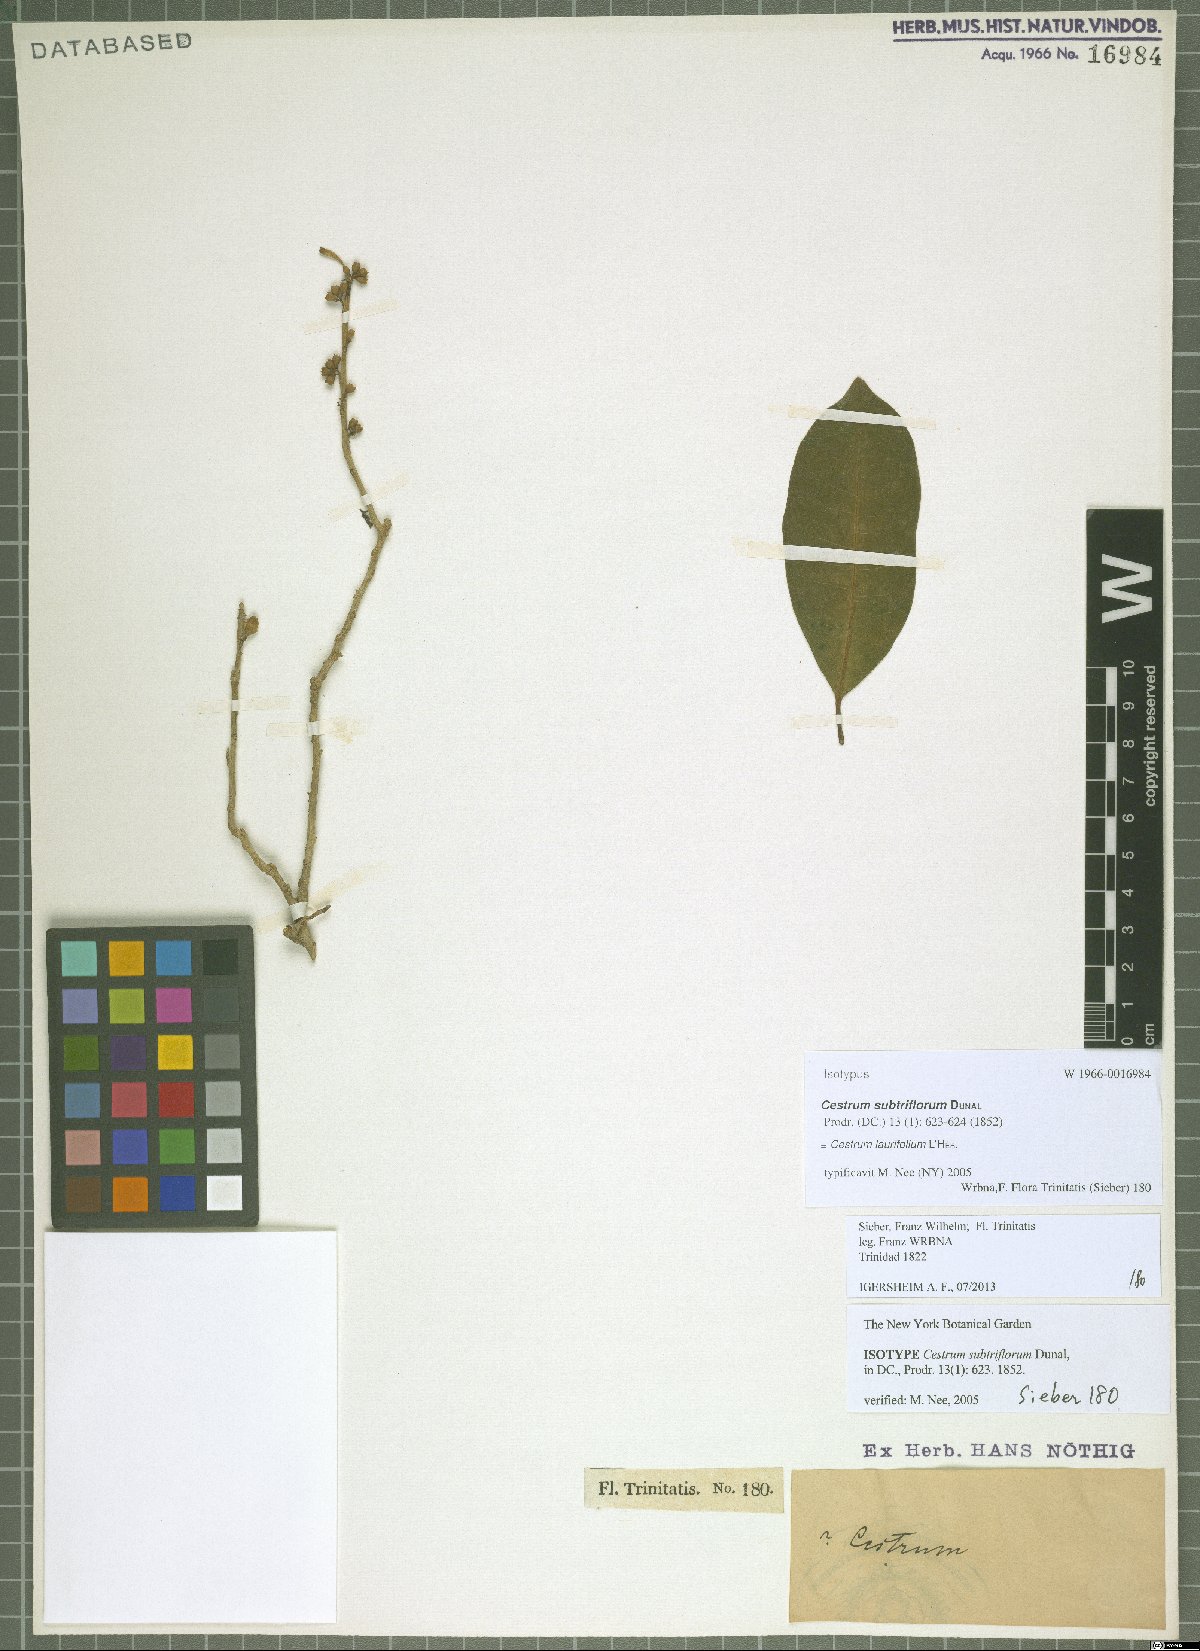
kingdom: Plantae
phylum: Tracheophyta
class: Magnoliopsida
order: Solanales
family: Solanaceae
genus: Cestrum
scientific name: Cestrum
